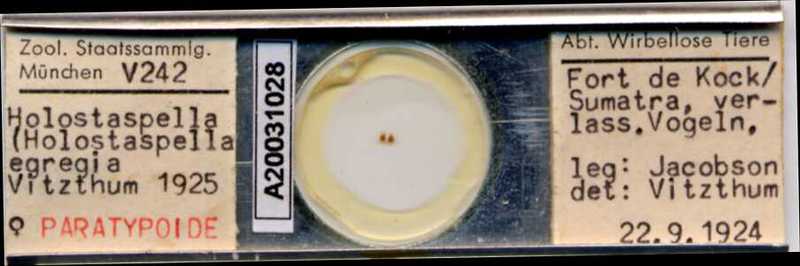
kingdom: Animalia
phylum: Arthropoda
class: Arachnida
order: Mesostigmata
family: Macrochelidae
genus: Holostaspella
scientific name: Holostaspella moderata
